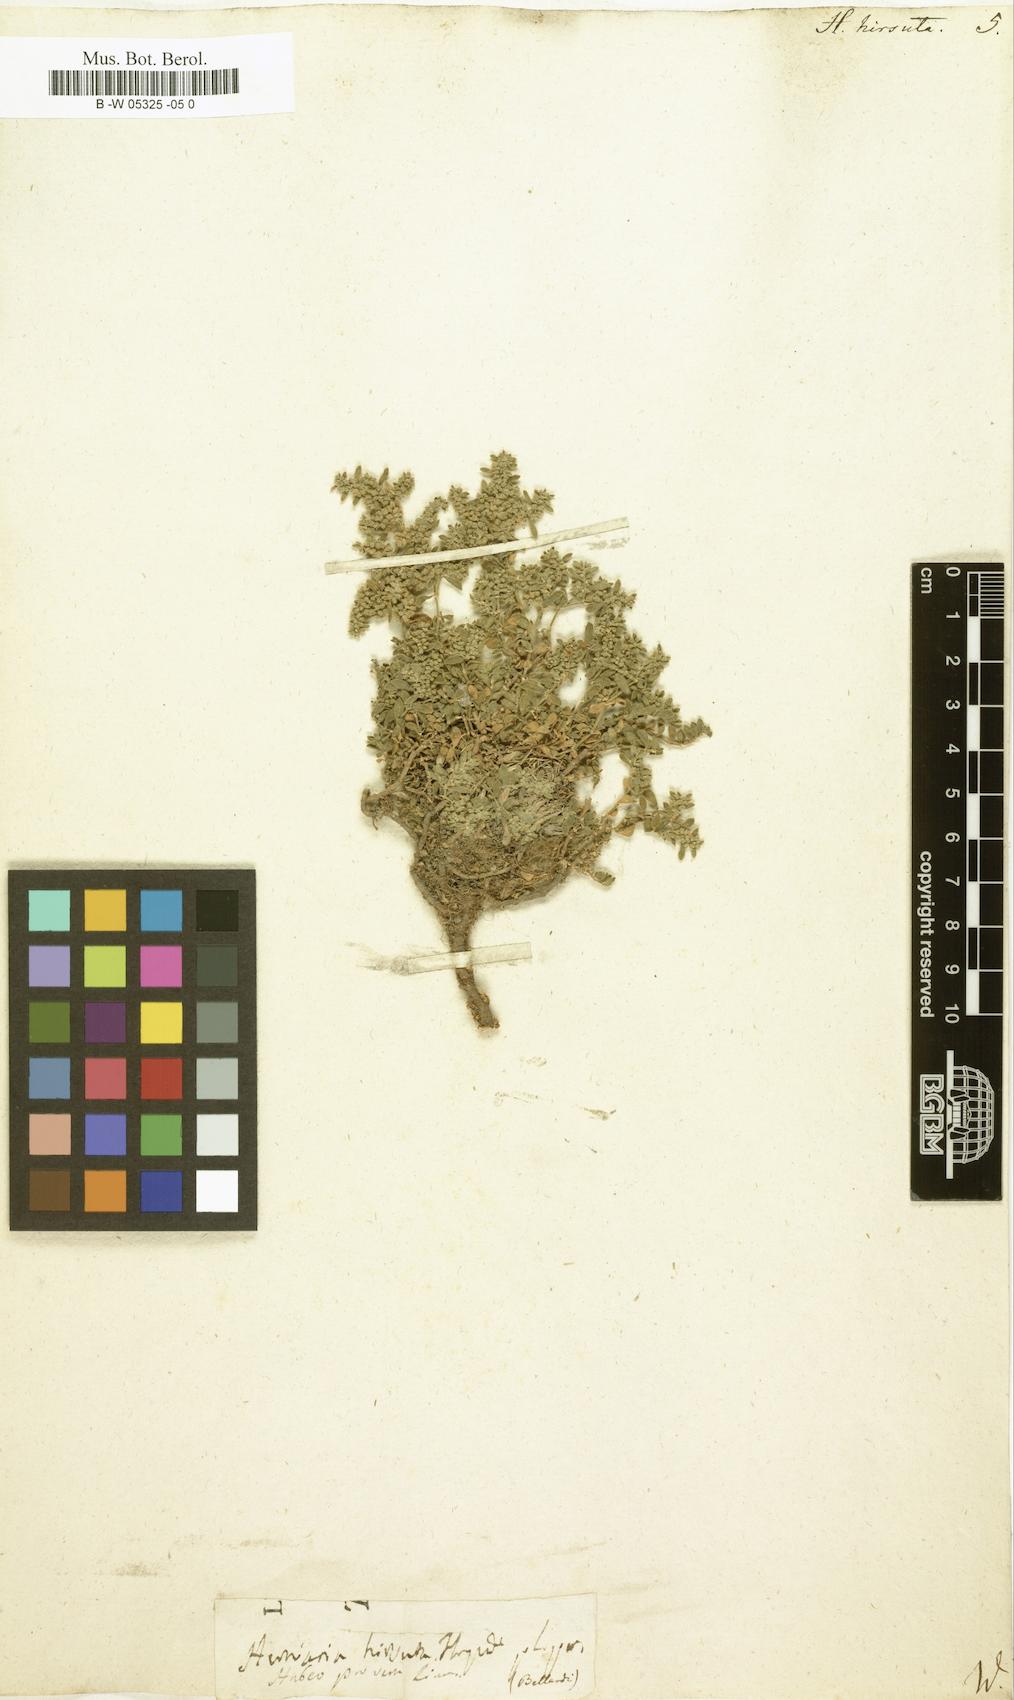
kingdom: Plantae
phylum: Tracheophyta
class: Magnoliopsida
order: Caryophyllales
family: Caryophyllaceae
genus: Herniaria
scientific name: Herniaria hirsuta
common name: Hairy rupturewort
